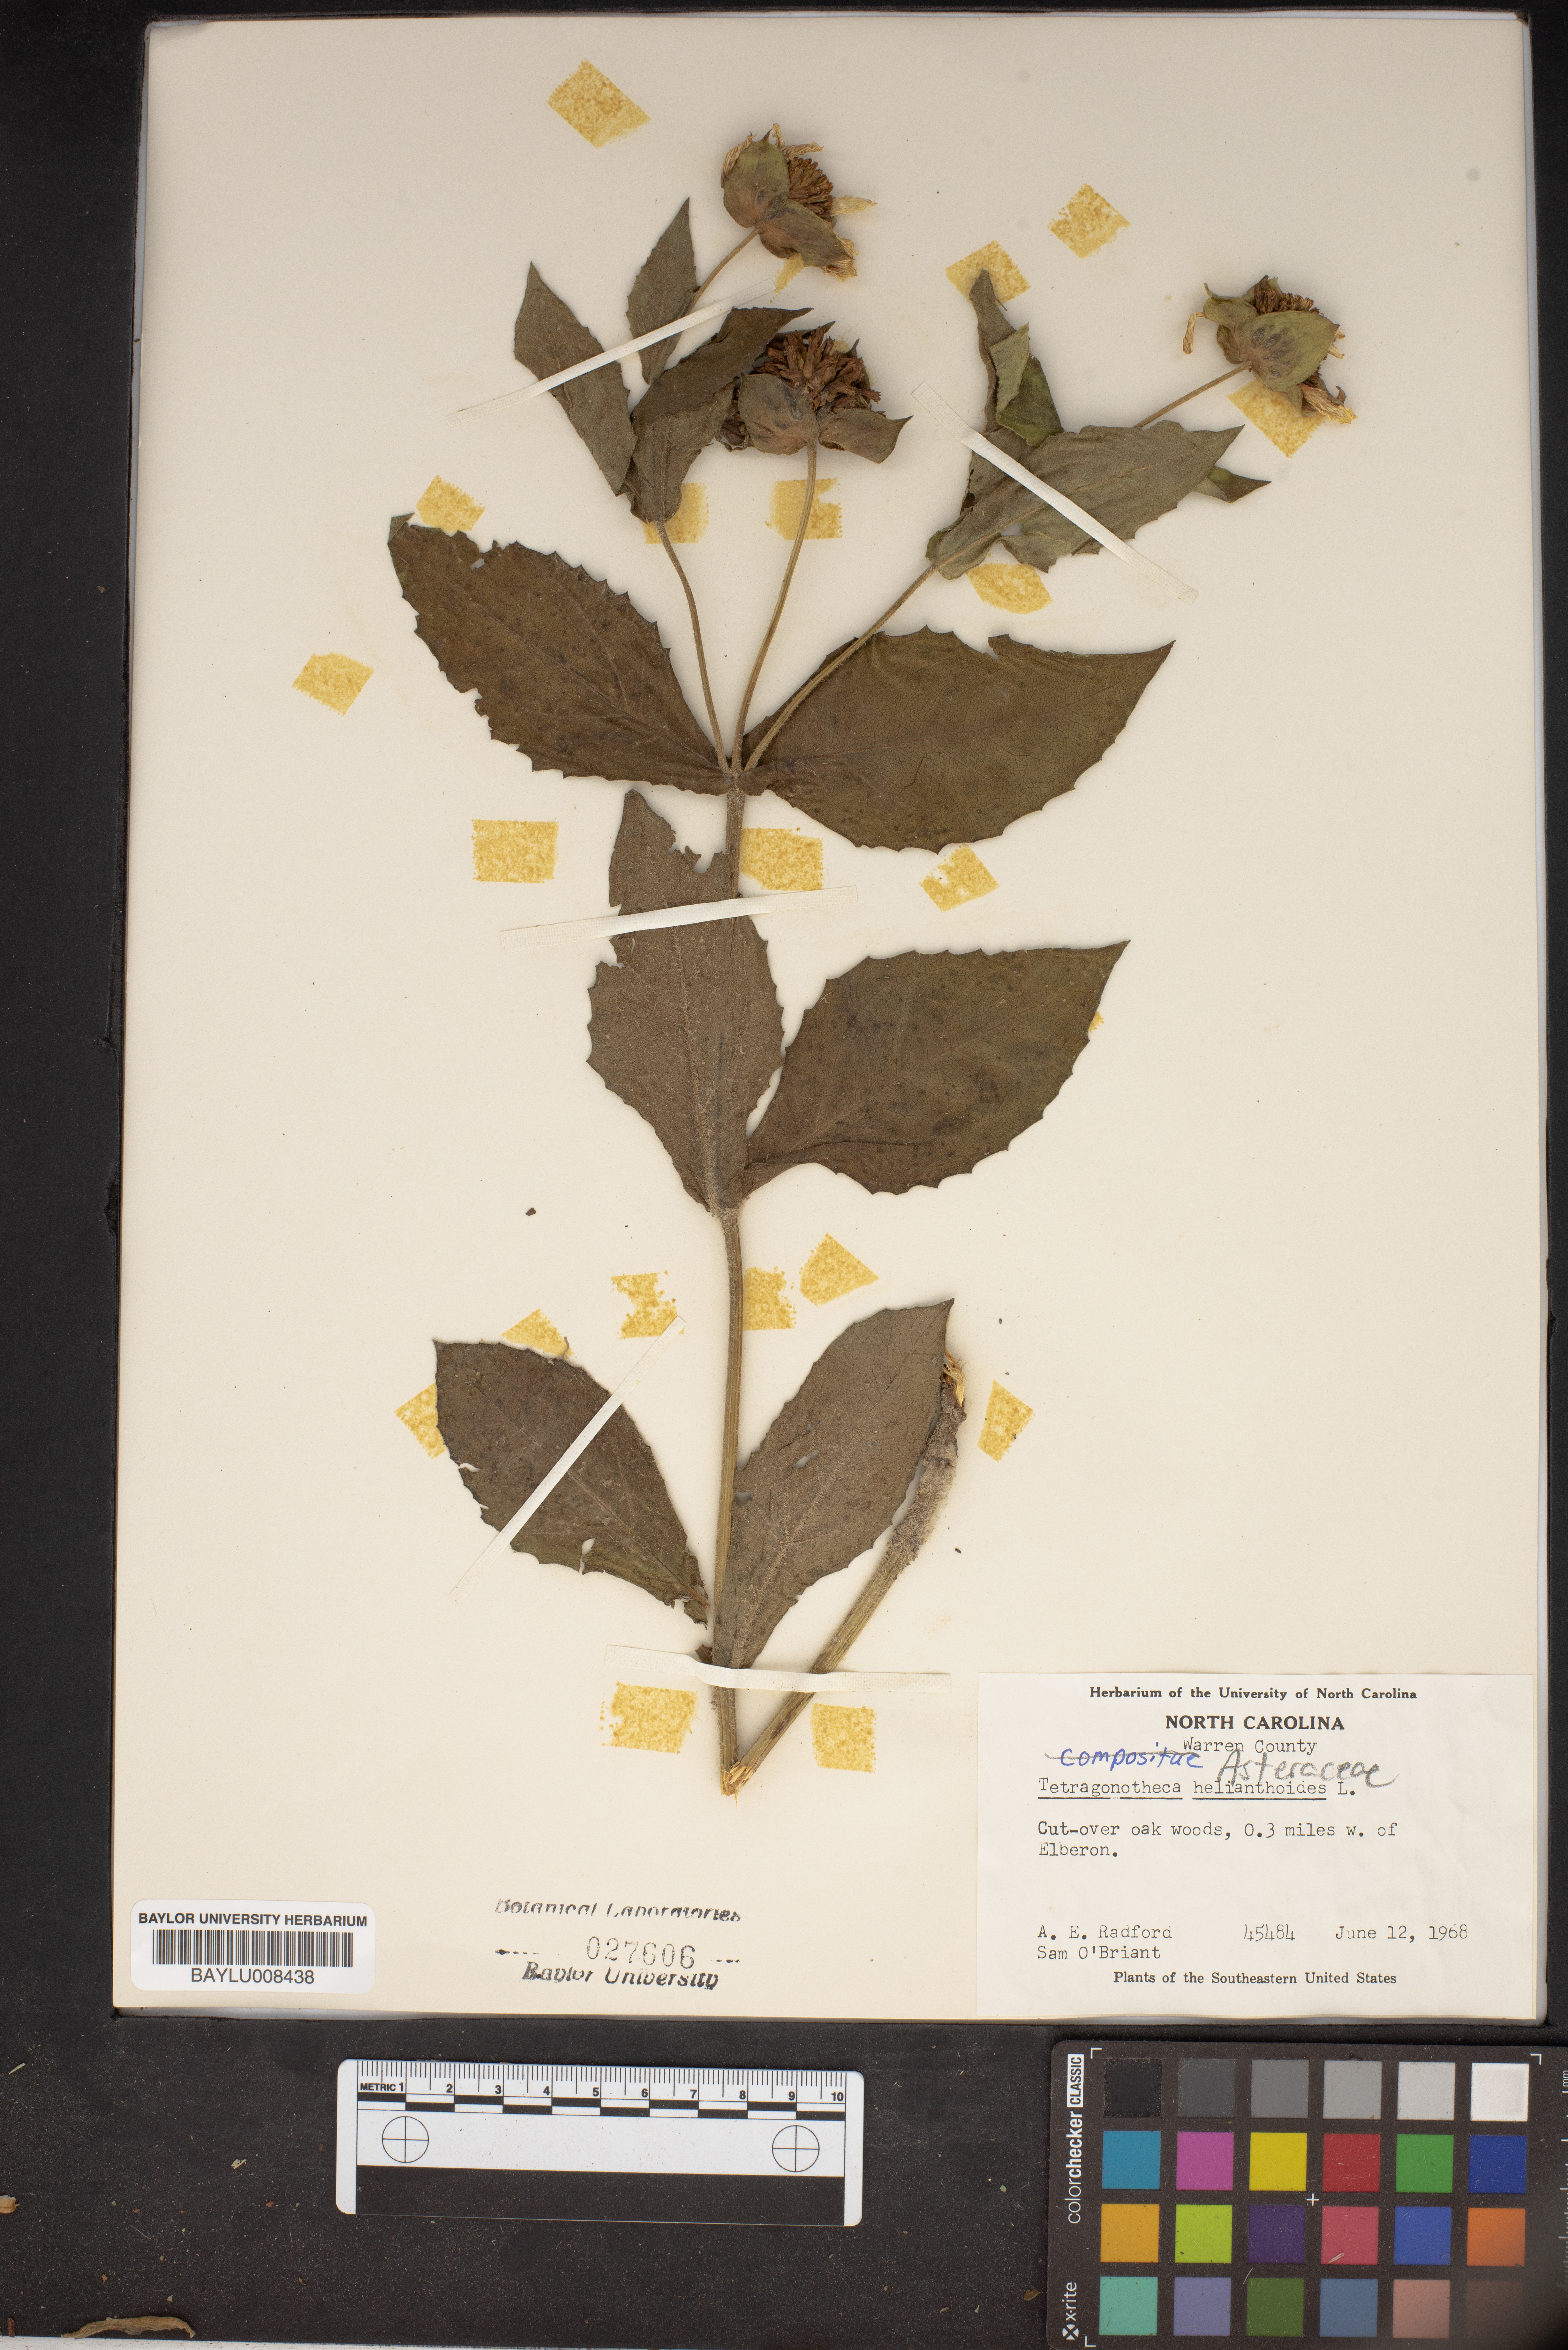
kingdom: Plantae
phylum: Tracheophyta
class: Magnoliopsida
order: Asterales
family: Asteraceae
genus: Tetragonotheca
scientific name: Tetragonotheca helianthoides
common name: Pineland-ginseng
